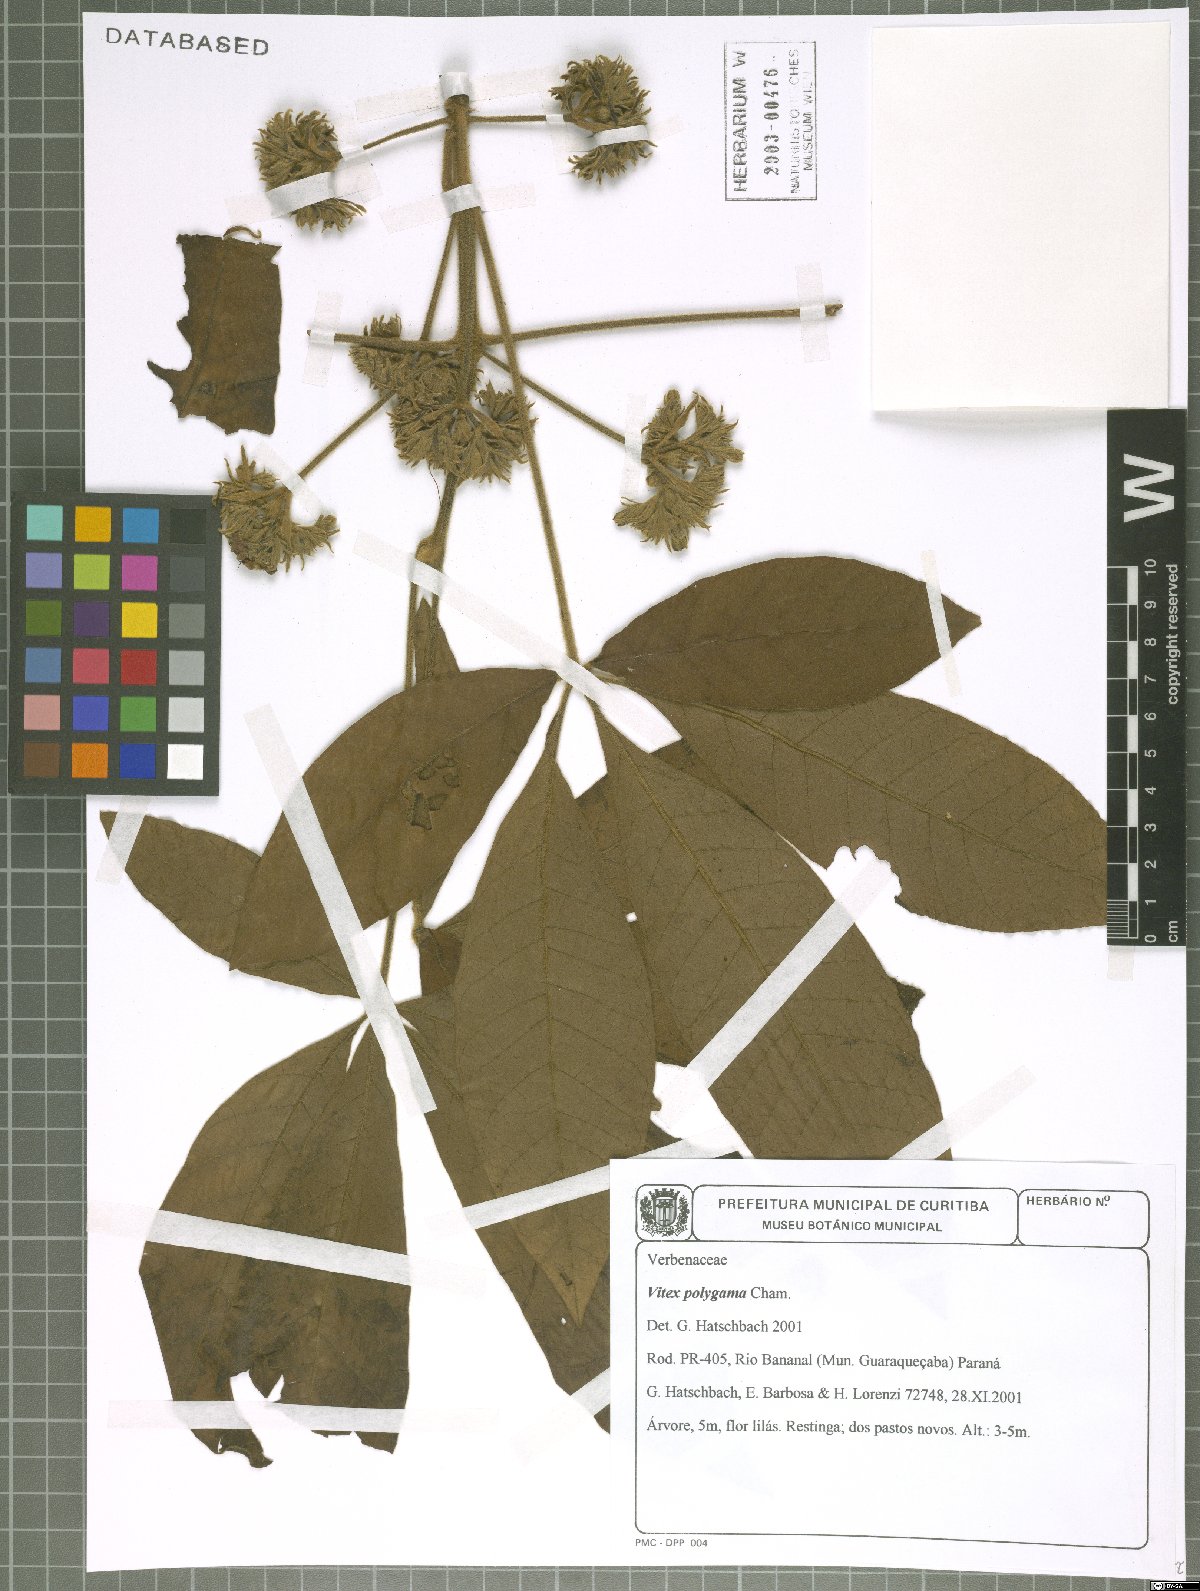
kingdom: Plantae
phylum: Tracheophyta
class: Magnoliopsida
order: Lamiales
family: Lamiaceae
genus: Vitex
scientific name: Vitex polygama
